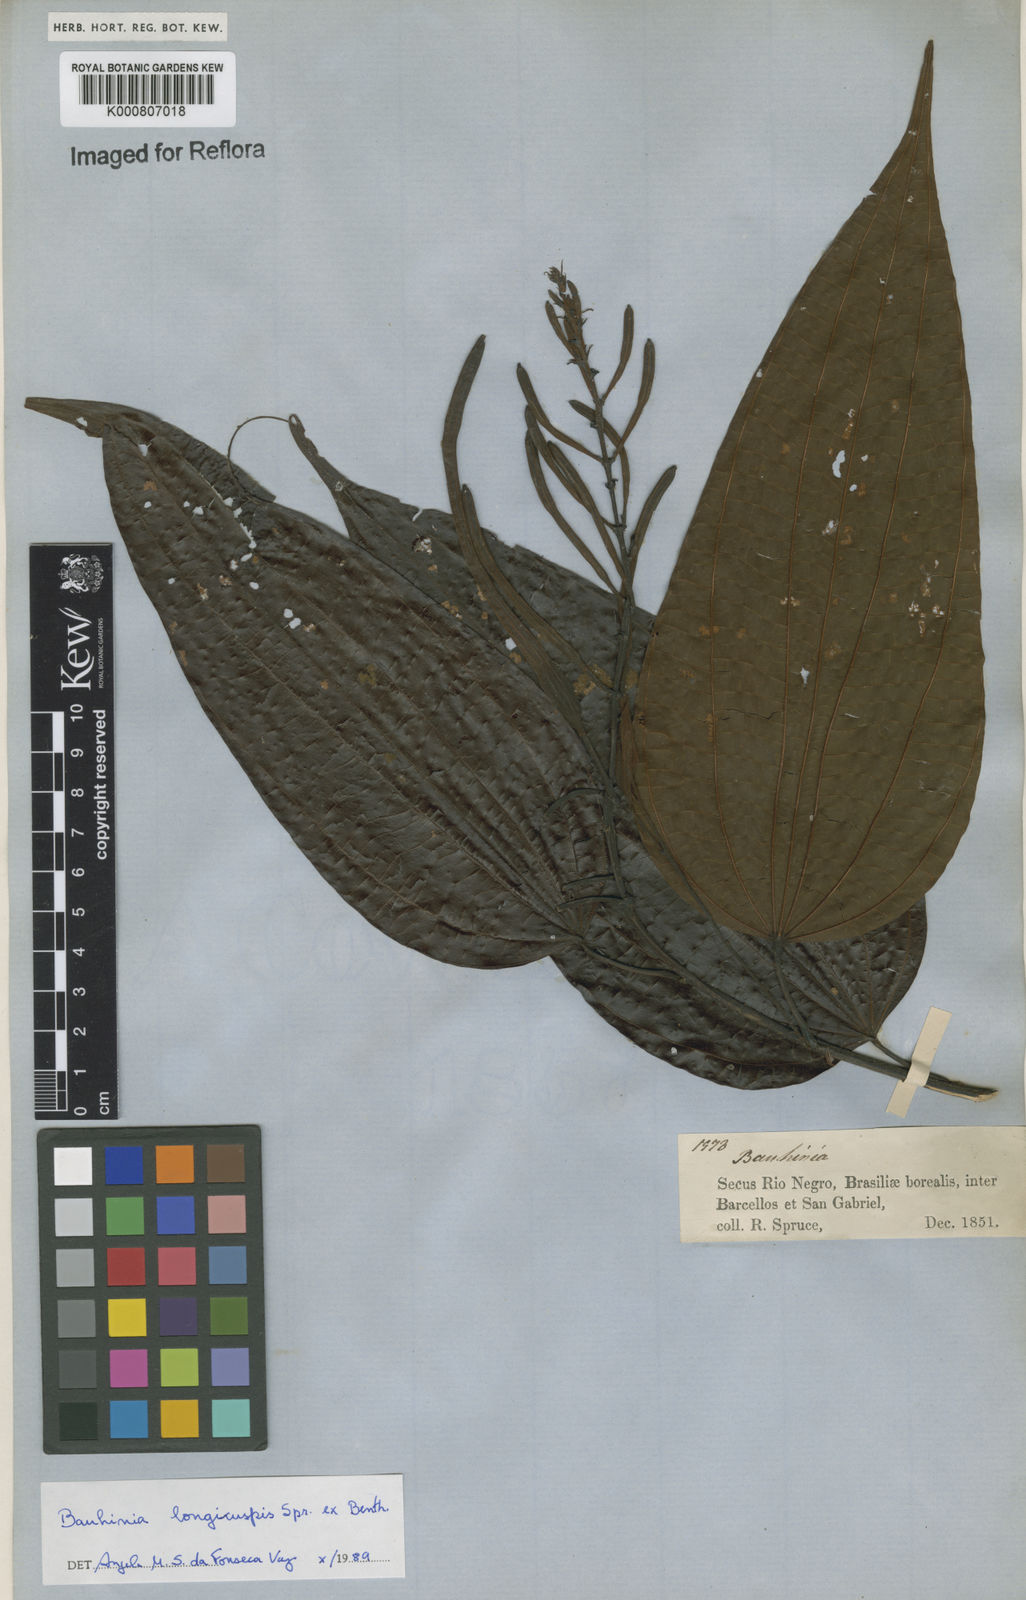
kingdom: Plantae
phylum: Tracheophyta
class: Magnoliopsida
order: Fabales
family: Fabaceae
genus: Bauhinia
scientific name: Bauhinia longicuspis
